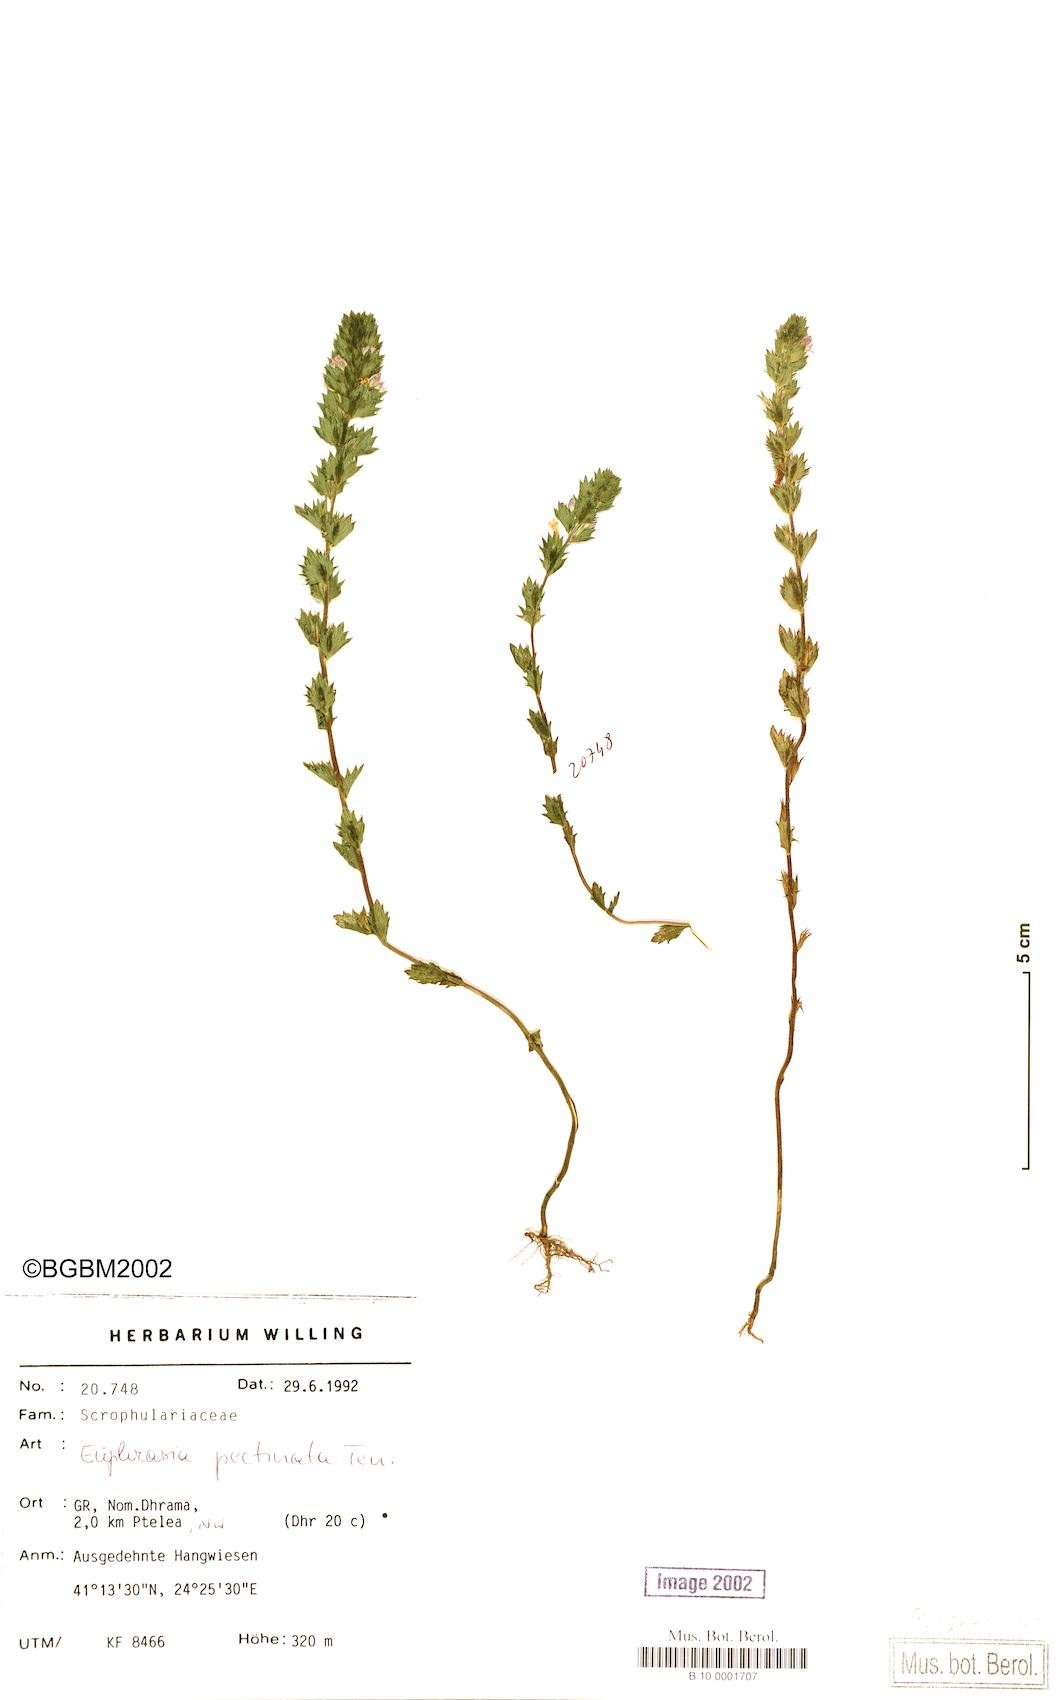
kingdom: Plantae
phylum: Tracheophyta
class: Magnoliopsida
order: Lamiales
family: Orobanchaceae
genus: Euphrasia
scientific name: Euphrasia pectinata
